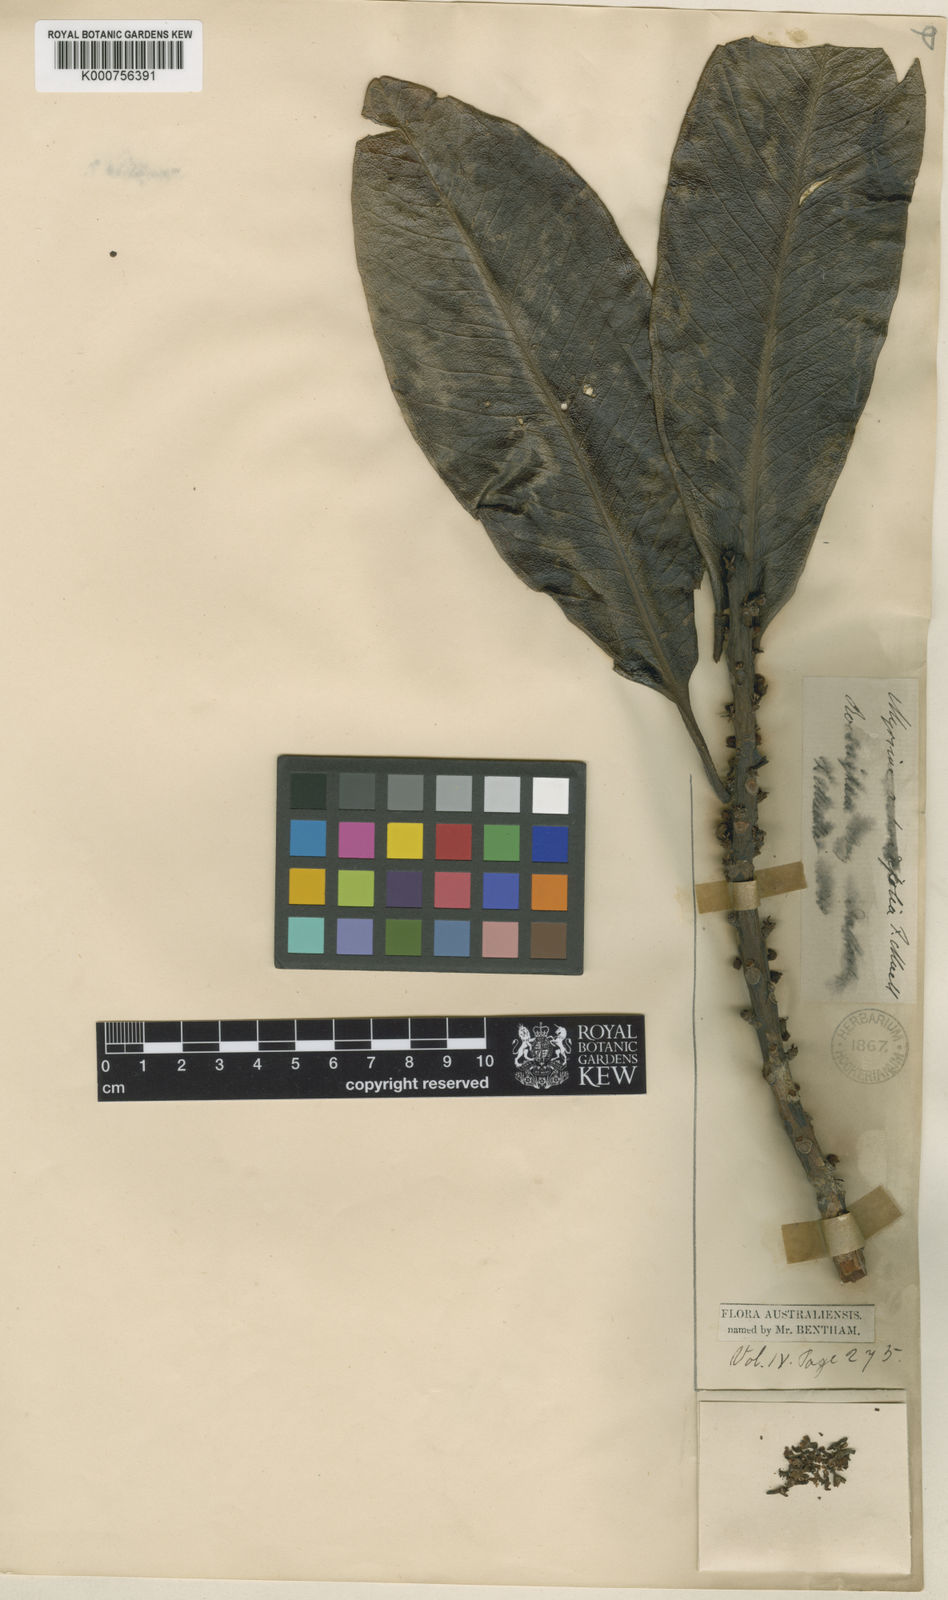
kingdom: Plantae
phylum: Tracheophyta
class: Magnoliopsida
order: Ericales
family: Primulaceae
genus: Myrsine
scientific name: Myrsine achradifolia
